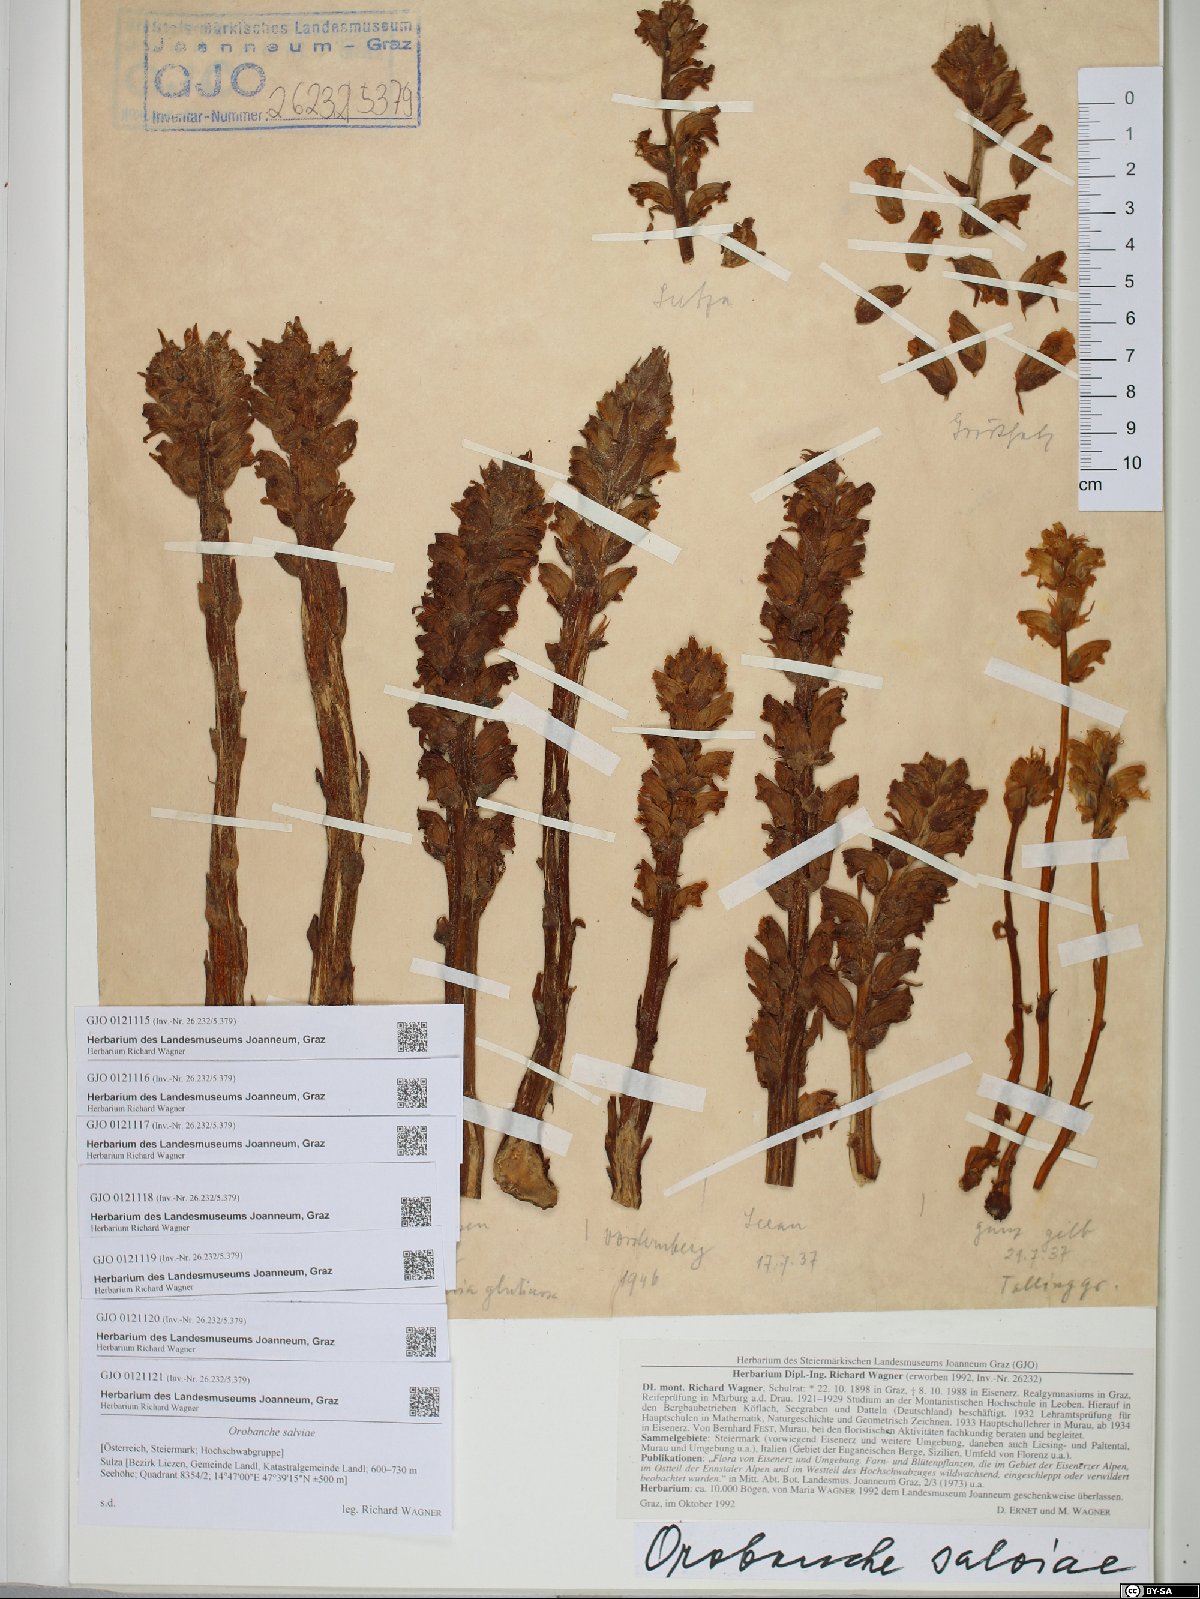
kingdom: Plantae
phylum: Tracheophyta
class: Magnoliopsida
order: Lamiales
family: Orobanchaceae
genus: Orobanche
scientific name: Orobanche salviae
